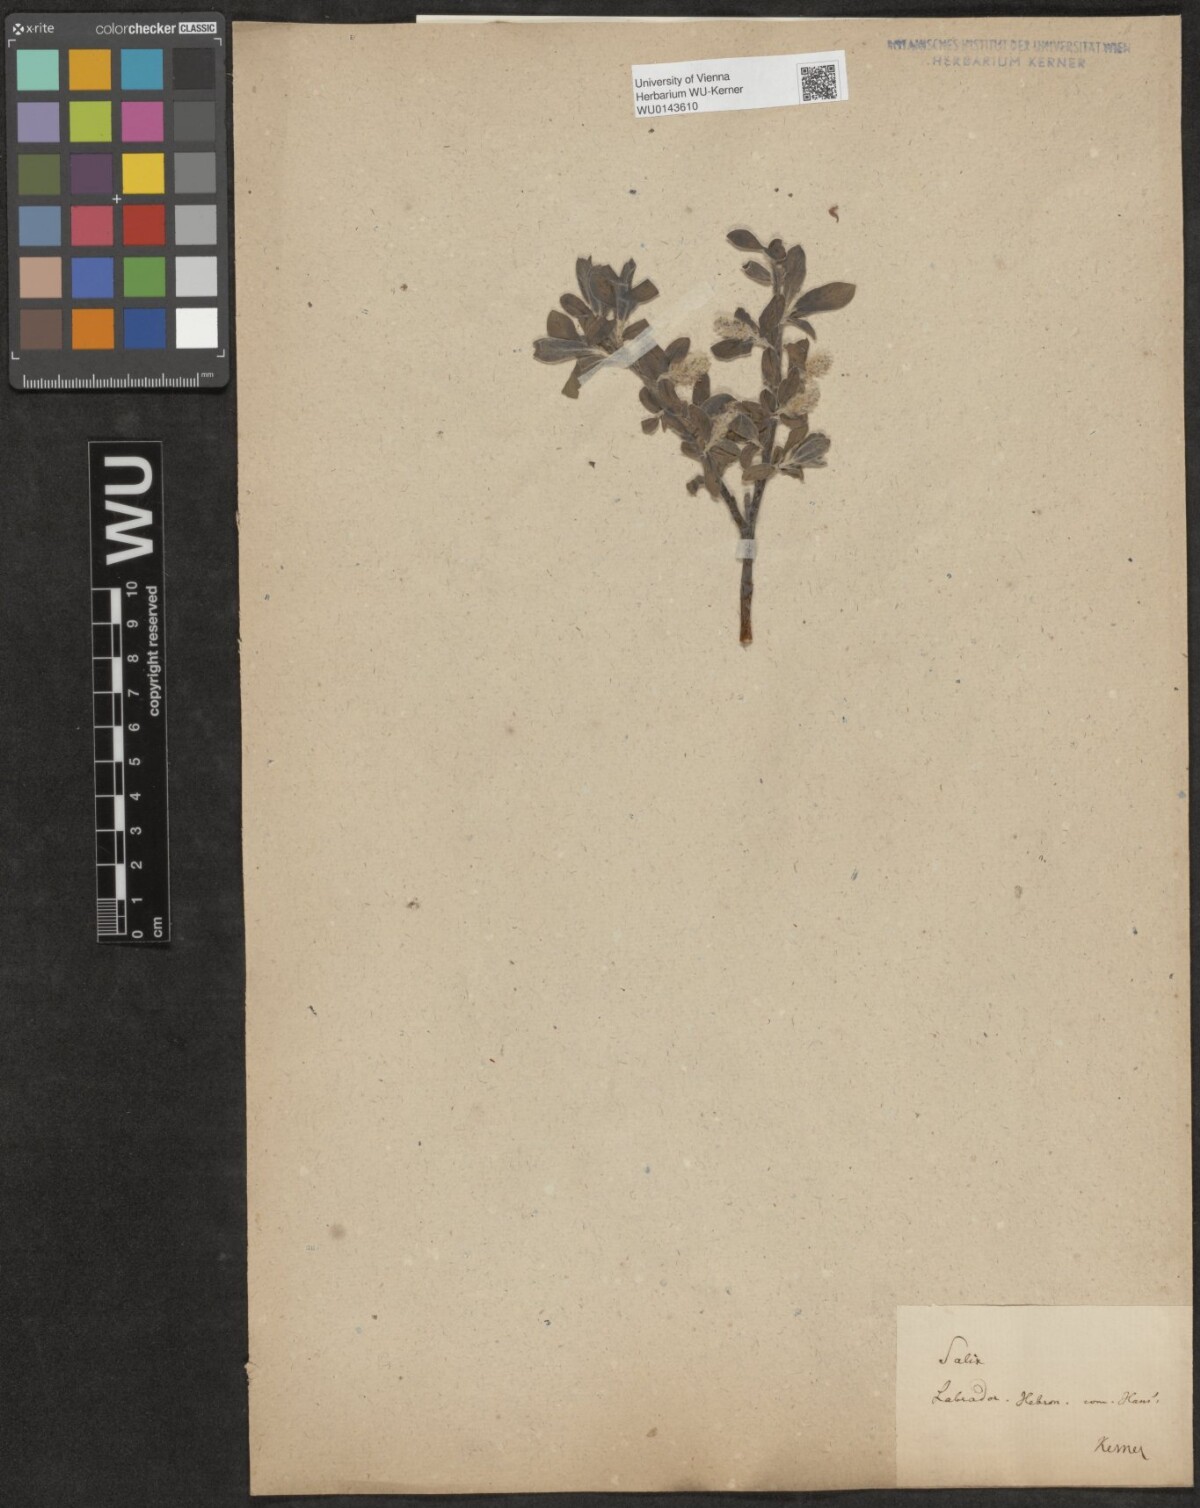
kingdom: Plantae
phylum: Tracheophyta
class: Magnoliopsida
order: Malpighiales
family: Salicaceae
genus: Salix
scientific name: Salix
